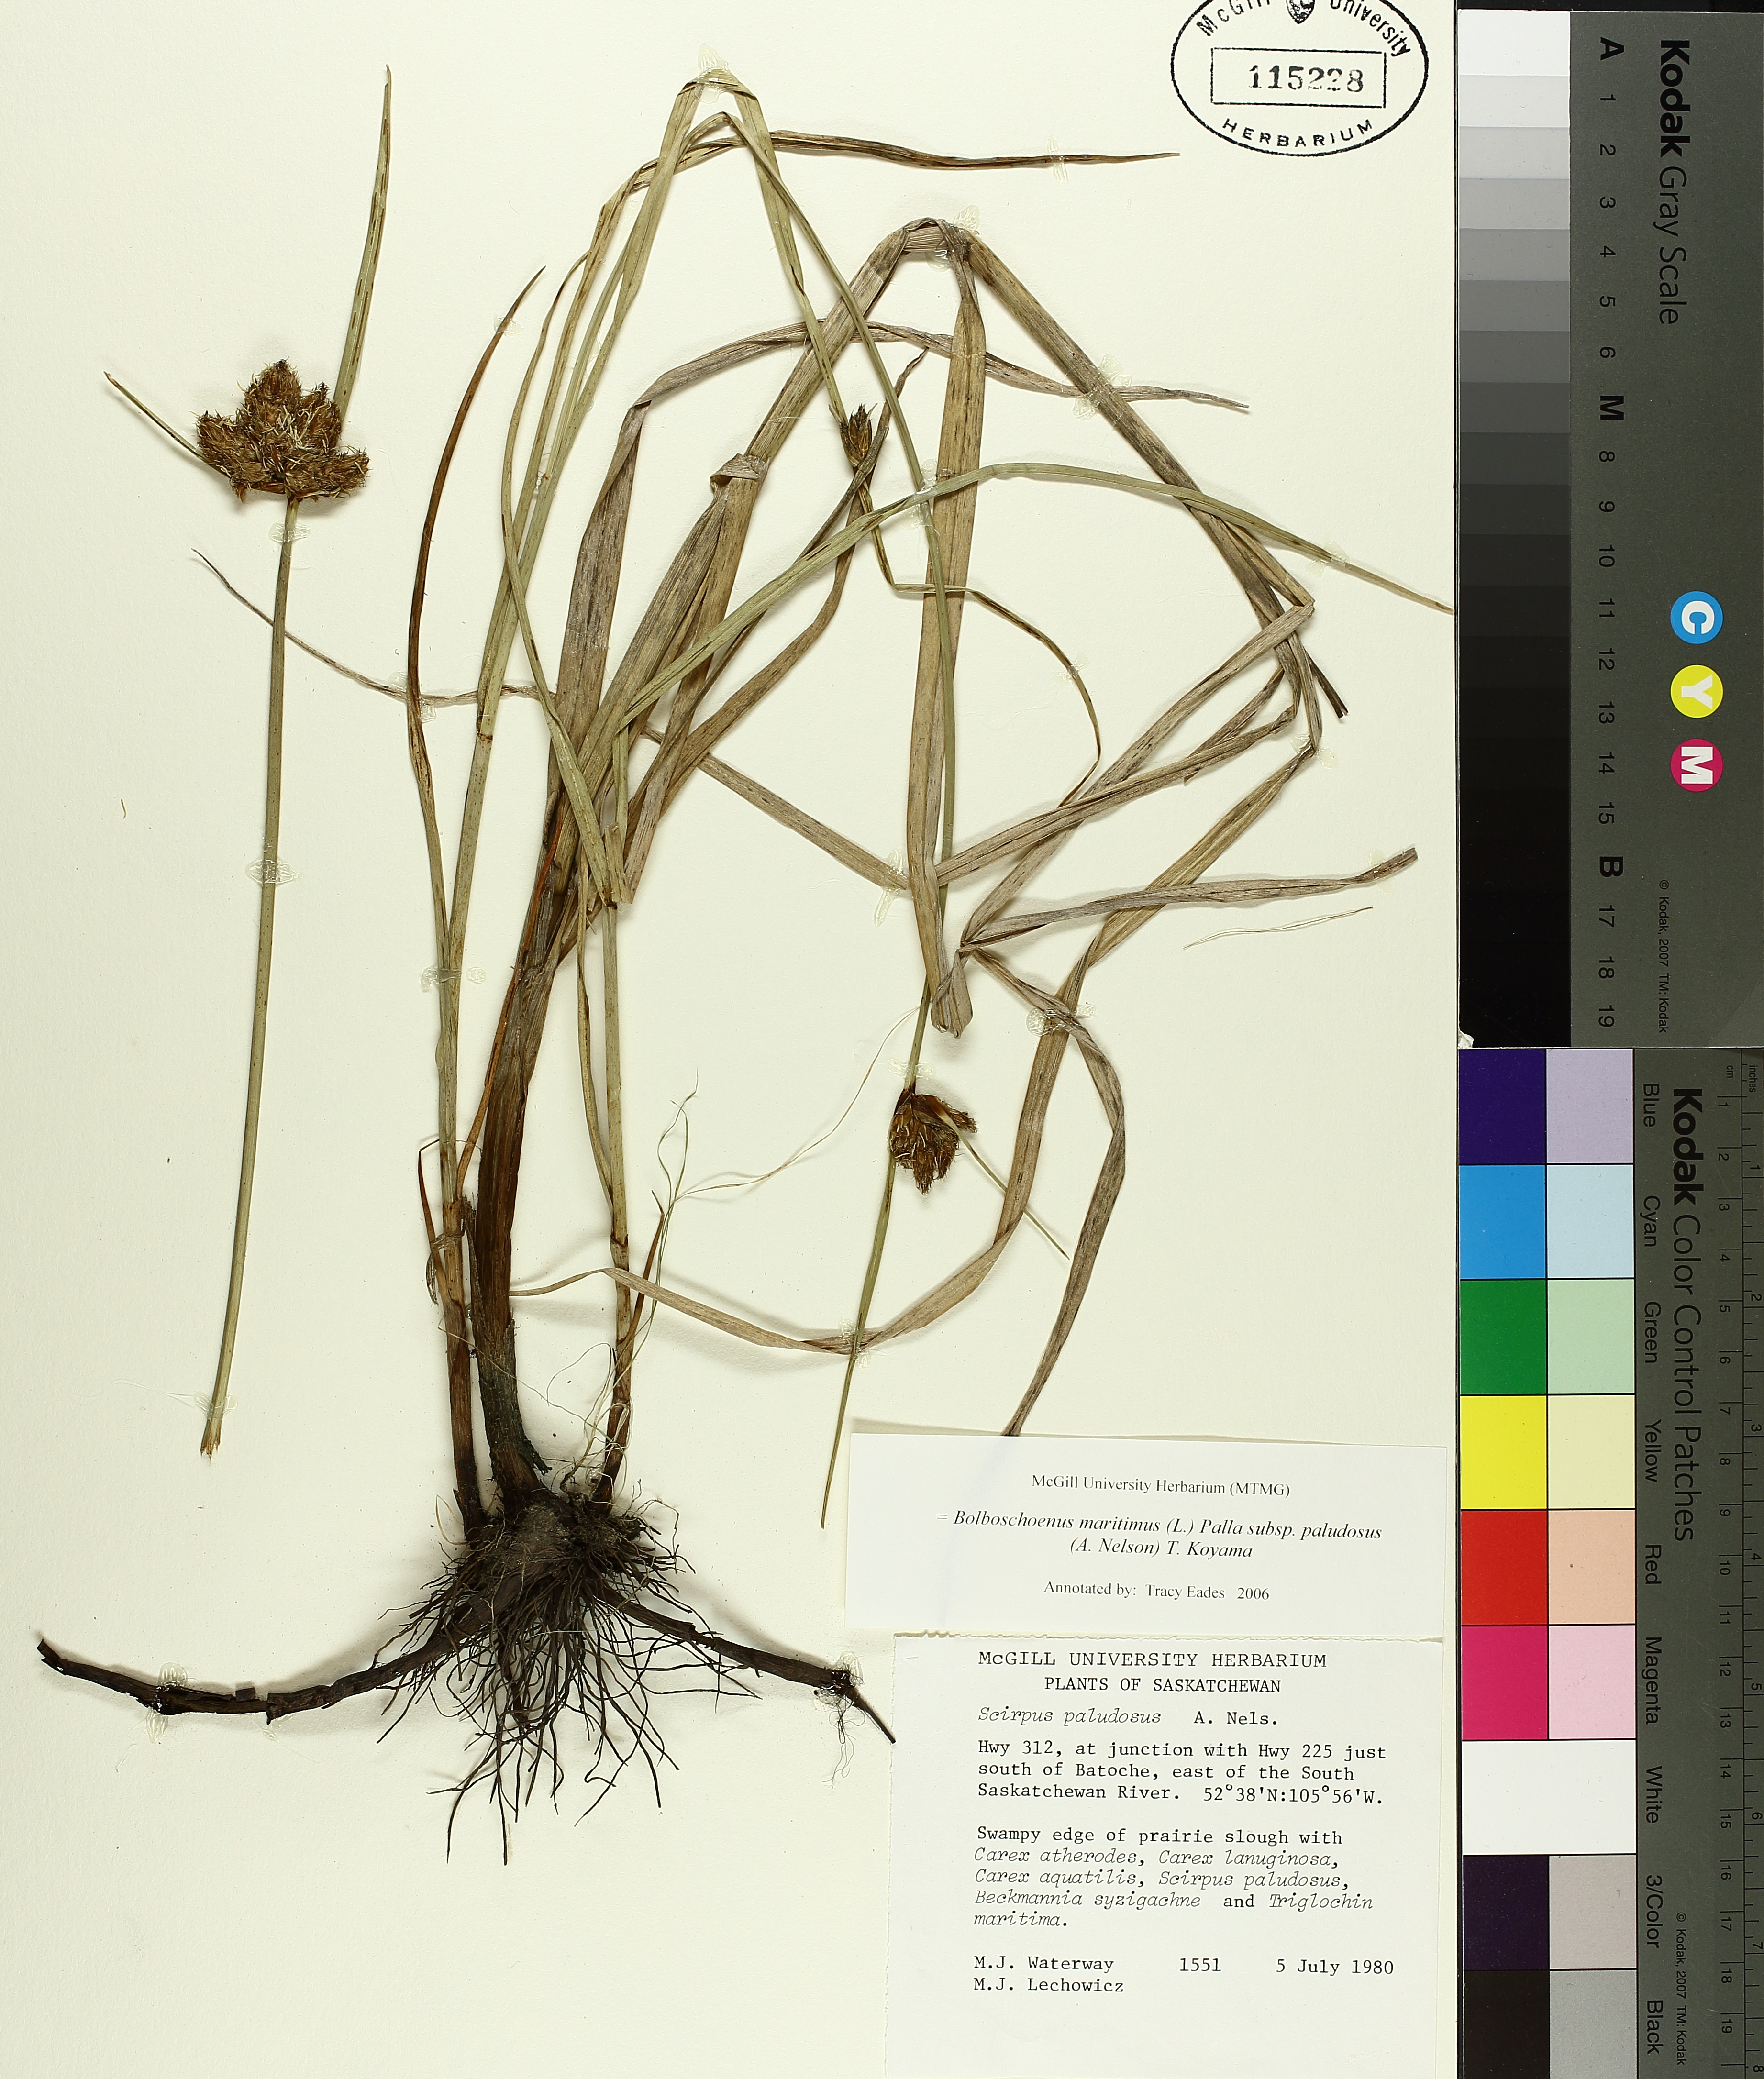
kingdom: Plantae
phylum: Tracheophyta
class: Liliopsida
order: Poales
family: Cyperaceae
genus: Bolboschoenus
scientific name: Bolboschoenus maritimus
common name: Sea club-rush
